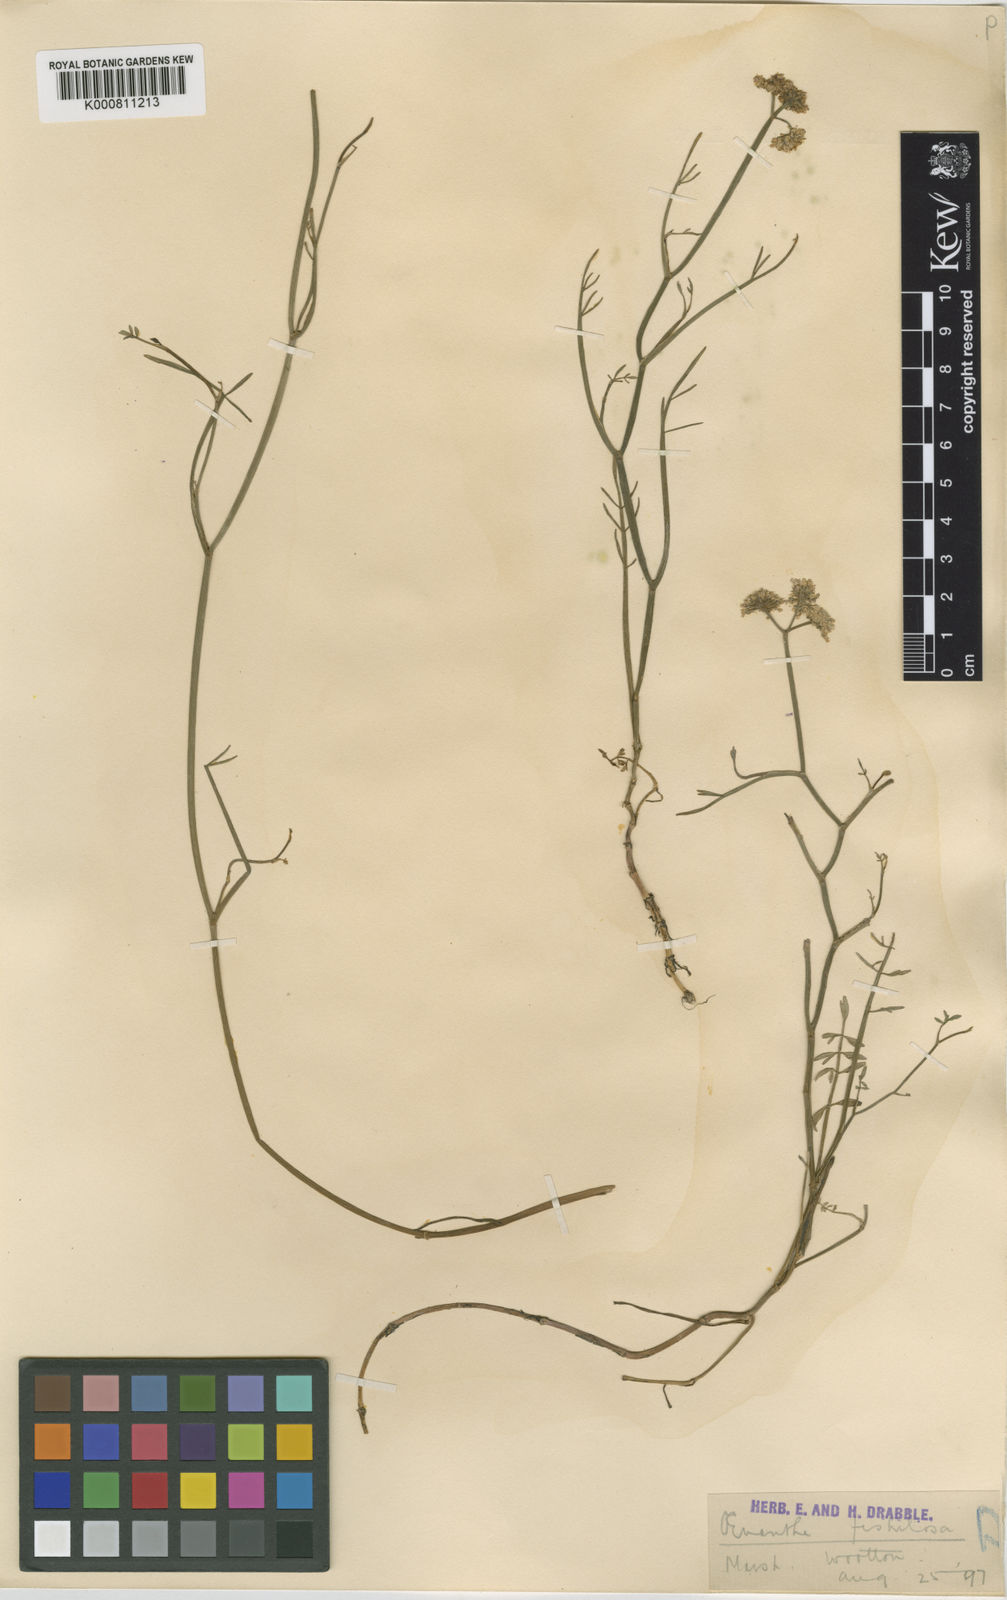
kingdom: Plantae
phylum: Tracheophyta
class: Magnoliopsida
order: Apiales
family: Apiaceae
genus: Oenanthe
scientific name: Oenanthe fistulosa
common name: Tubular water-dropwort
